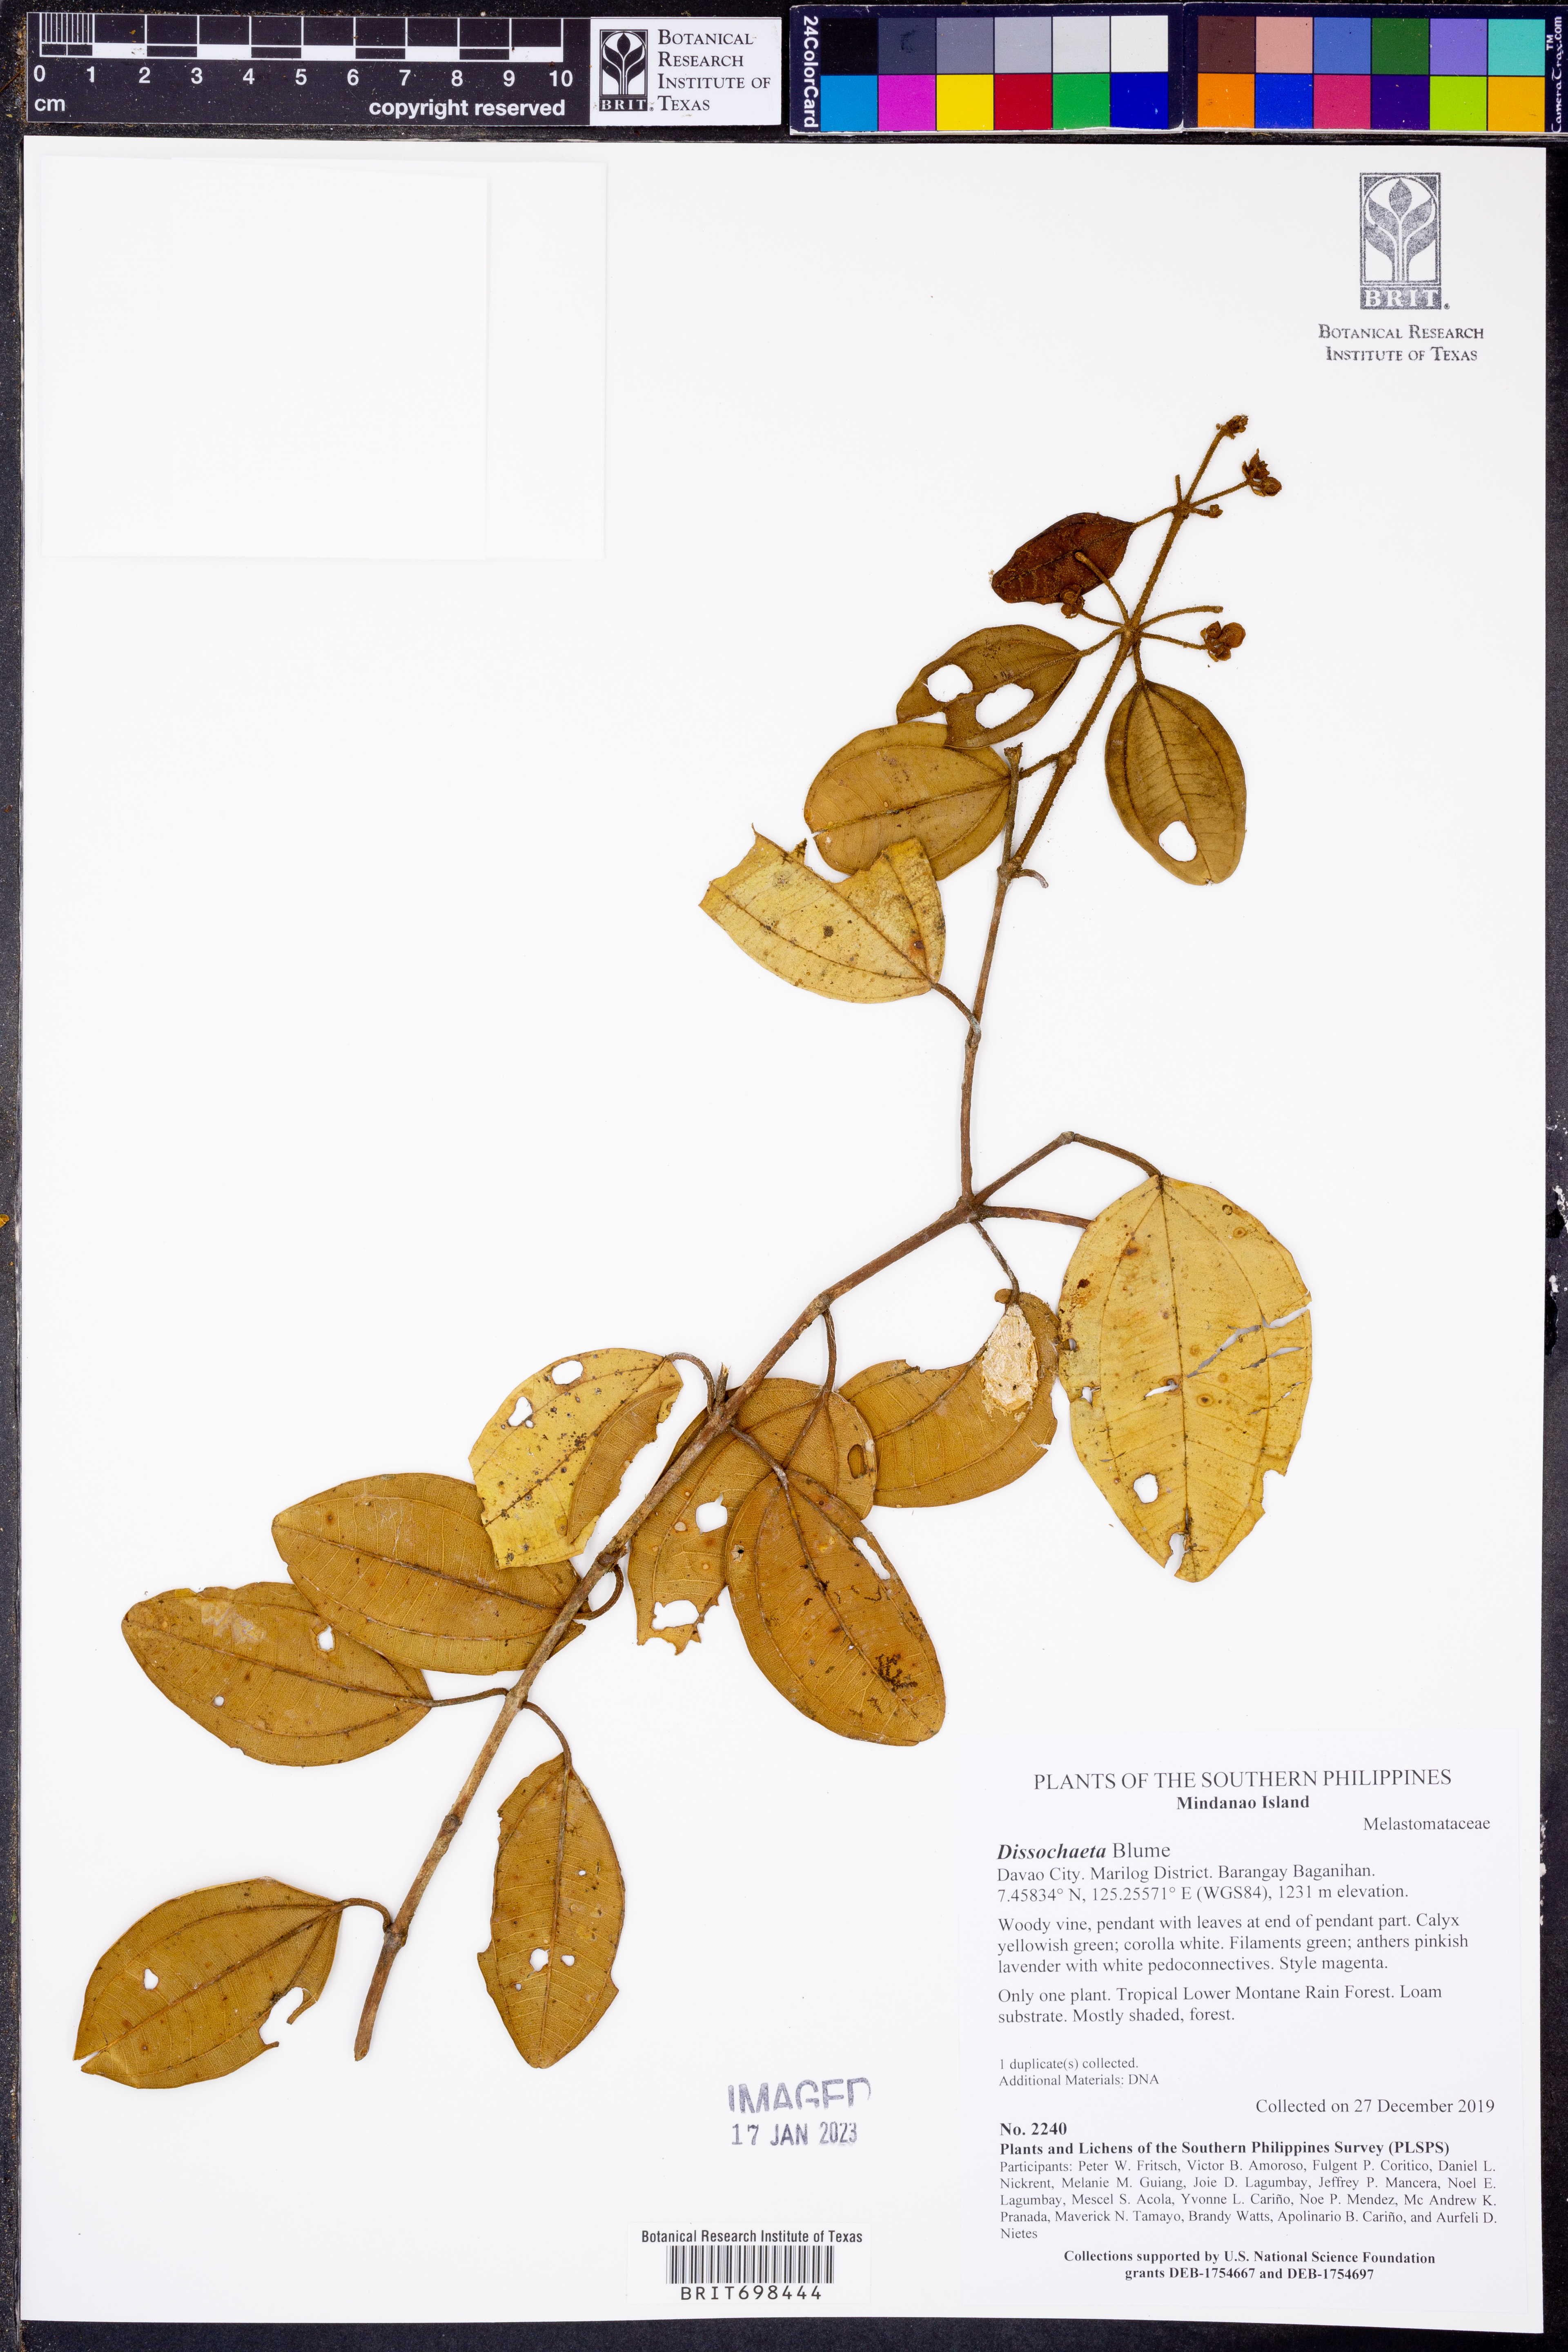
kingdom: Plantae
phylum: Tracheophyta
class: Magnoliopsida
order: Myrtales
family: Melastomataceae
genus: Dissochaeta
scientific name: Dissochaeta
